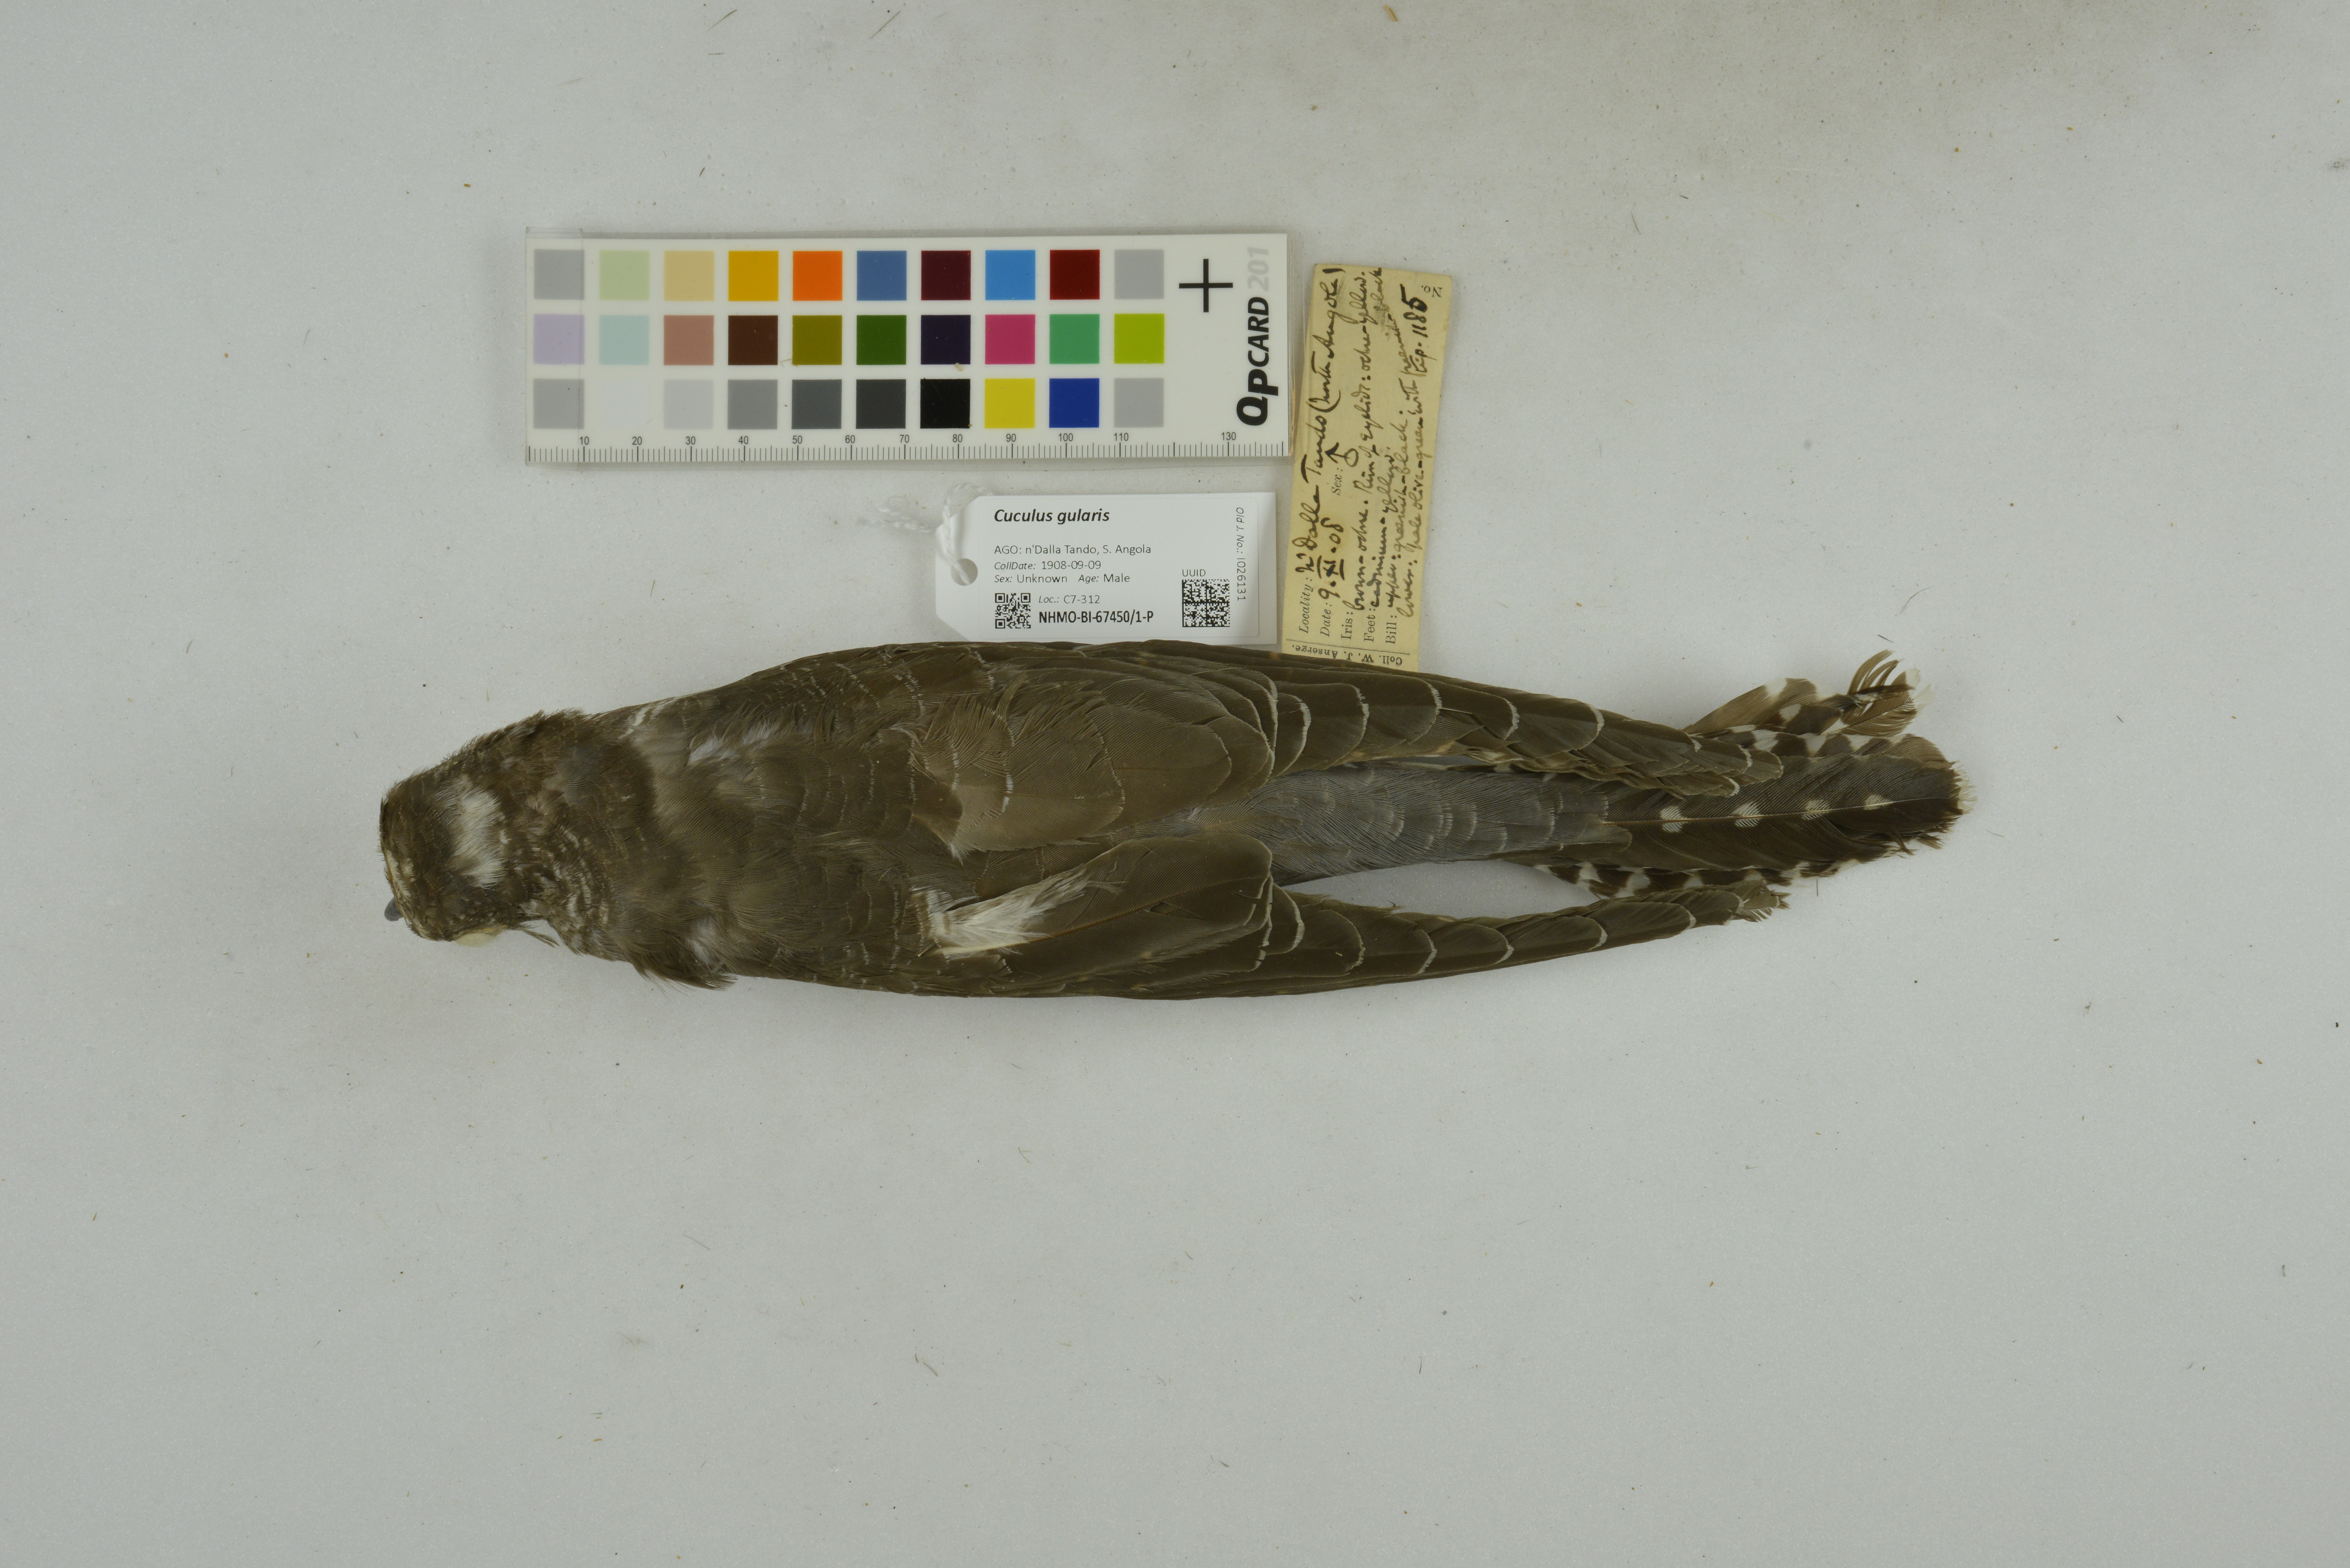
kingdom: Animalia
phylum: Chordata
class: Aves
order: Cuculiformes
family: Cuculidae
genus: Cuculus
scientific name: Cuculus gularis
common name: African cuckoo
